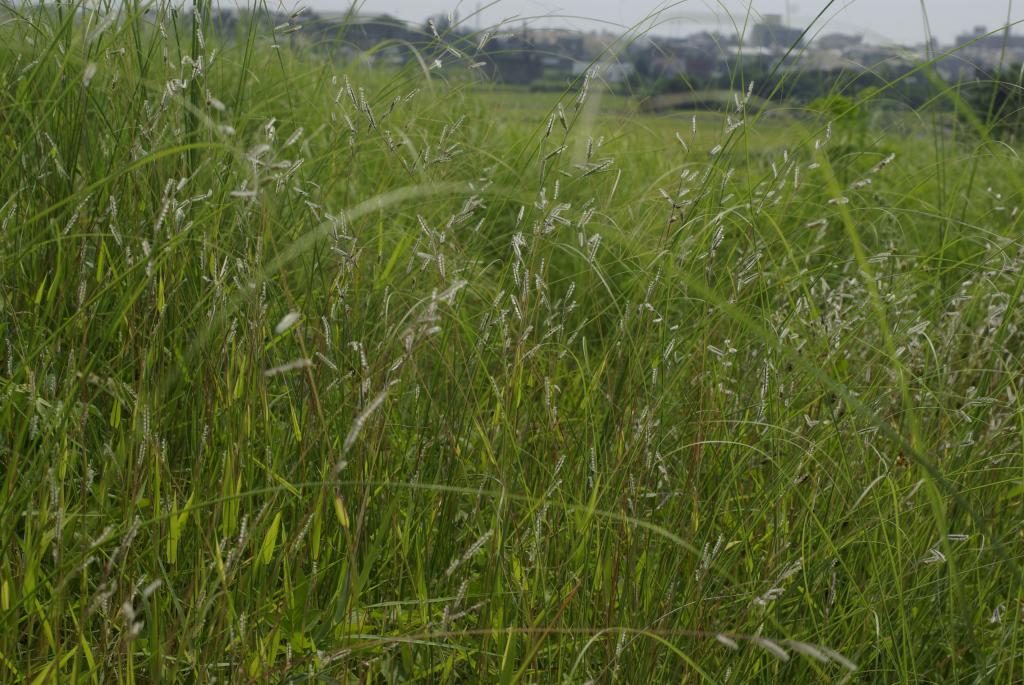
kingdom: Plantae
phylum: Tracheophyta
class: Liliopsida
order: Poales
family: Poaceae
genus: Eriochloa
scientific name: Eriochloa villosa
